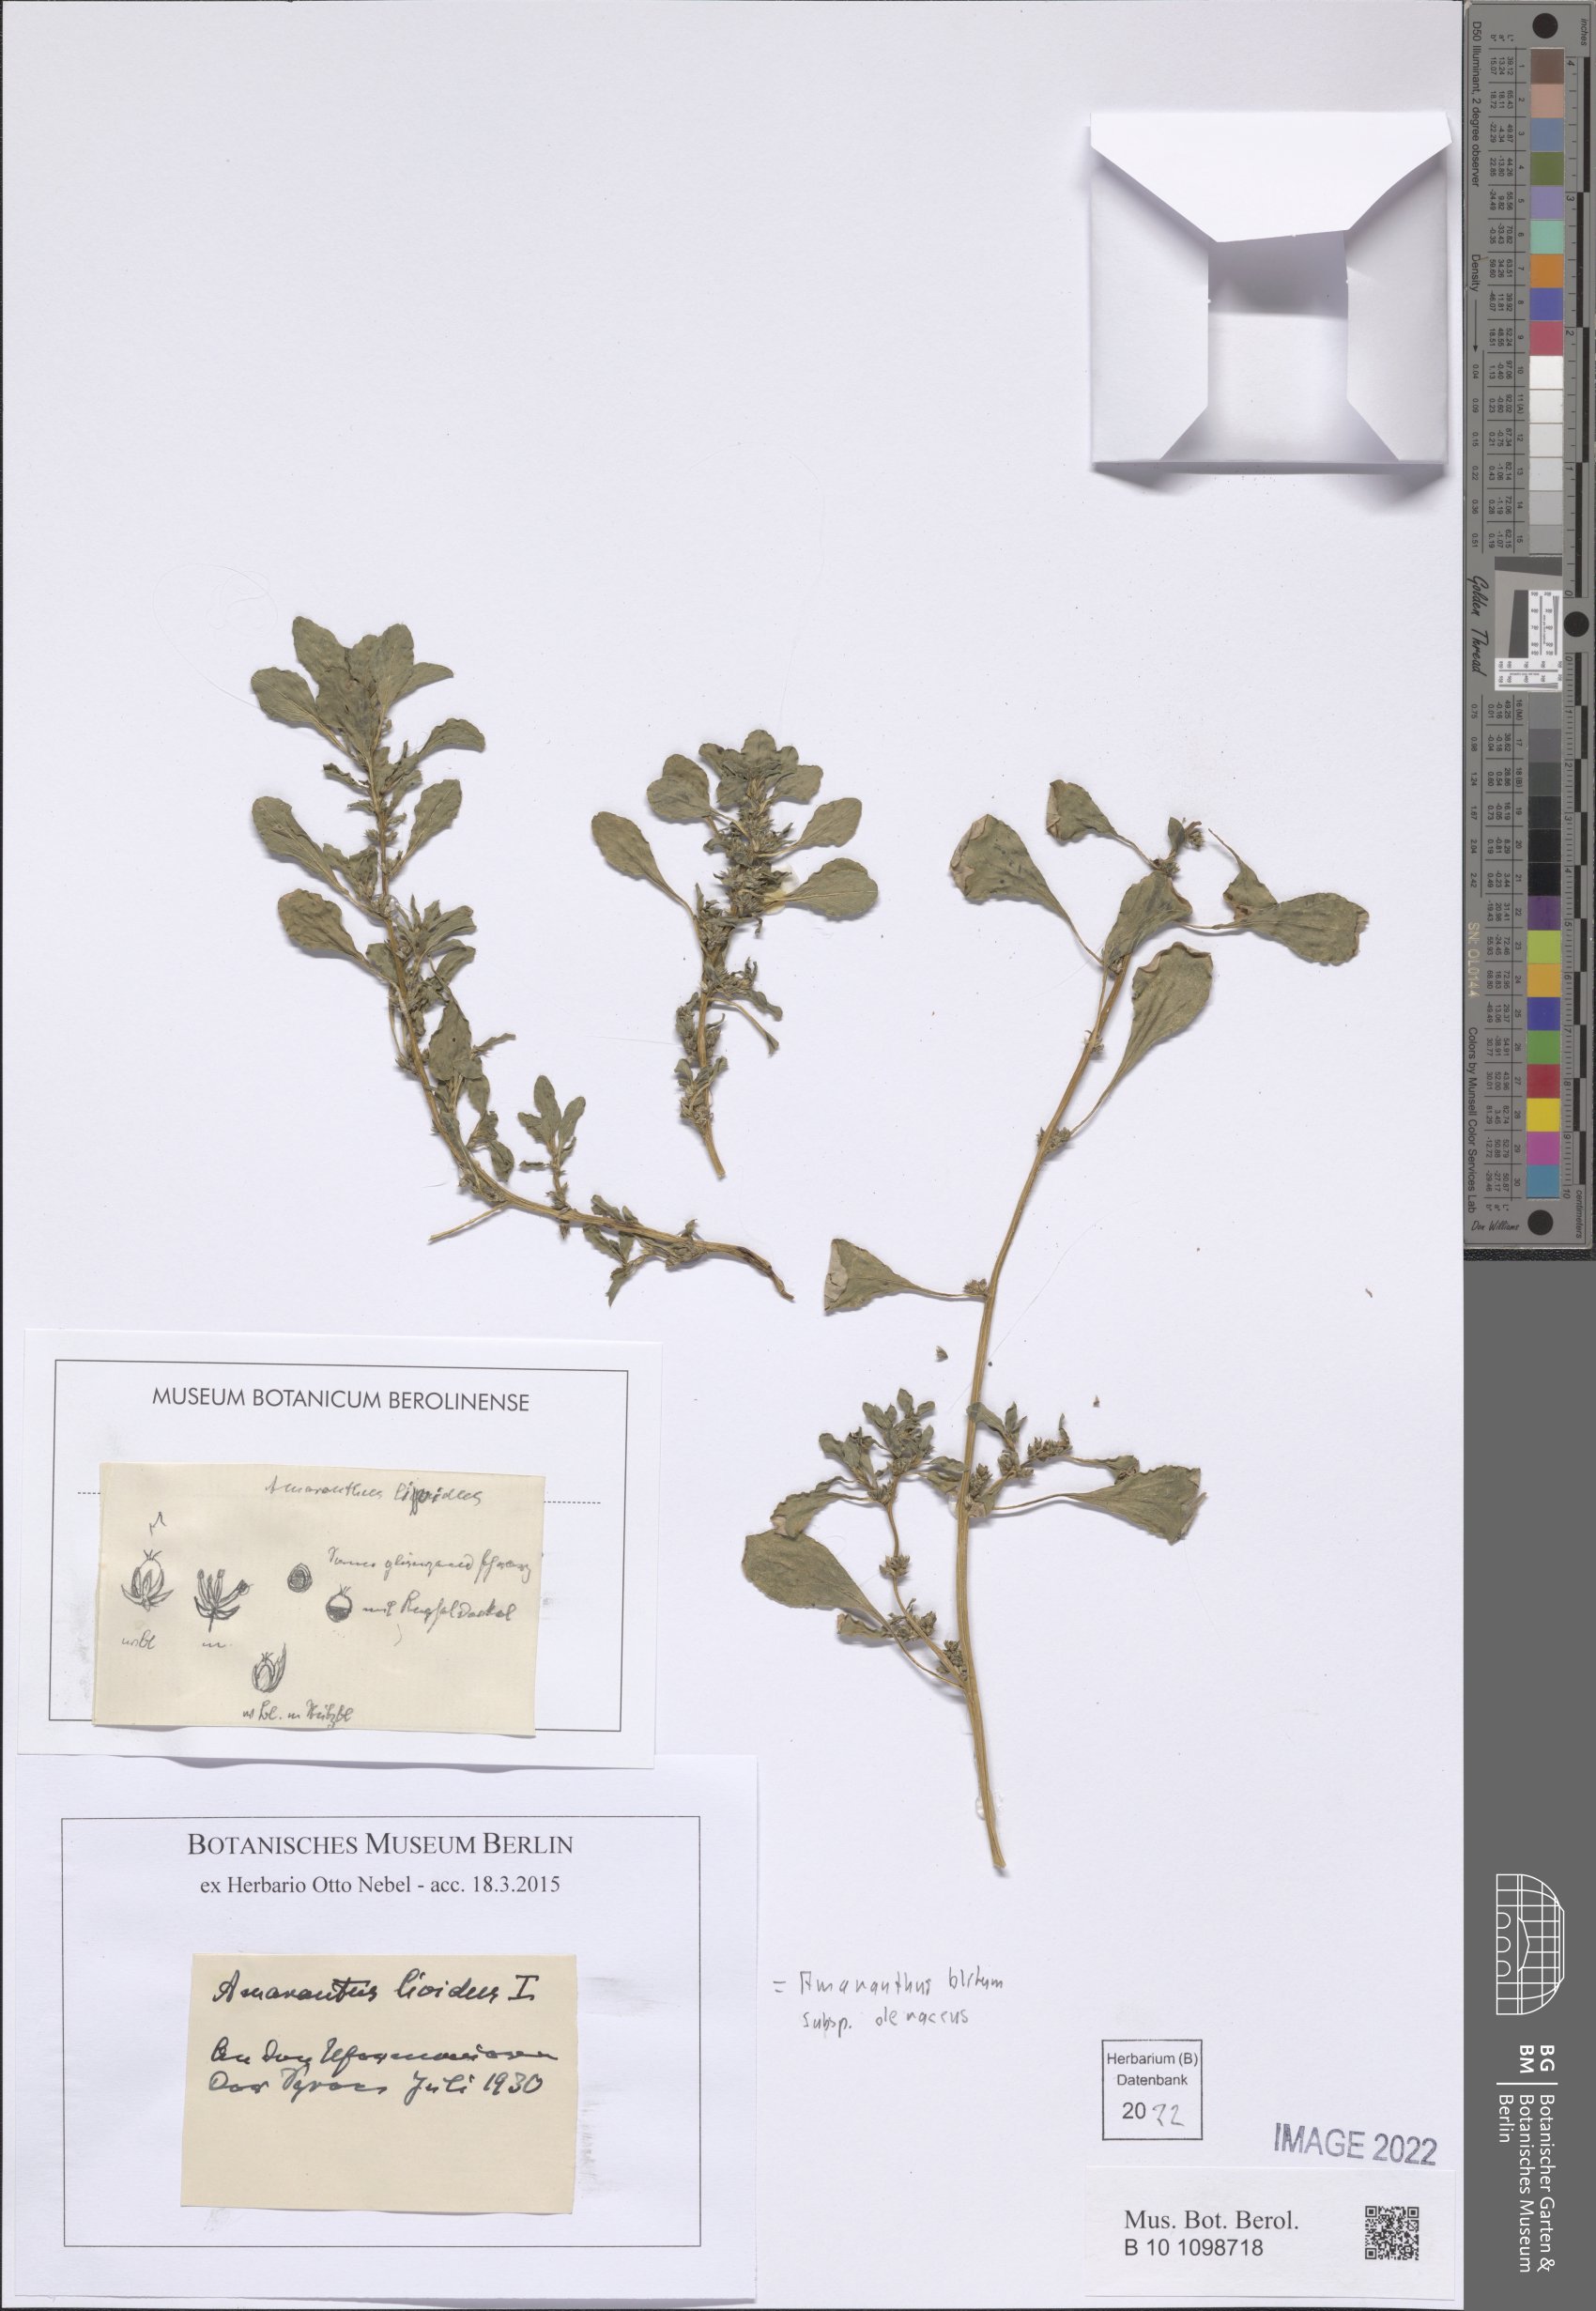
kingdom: Plantae
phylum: Tracheophyta
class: Magnoliopsida
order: Caryophyllales
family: Amaranthaceae
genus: Amaranthus
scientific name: Amaranthus blitum
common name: Purple amaranth
